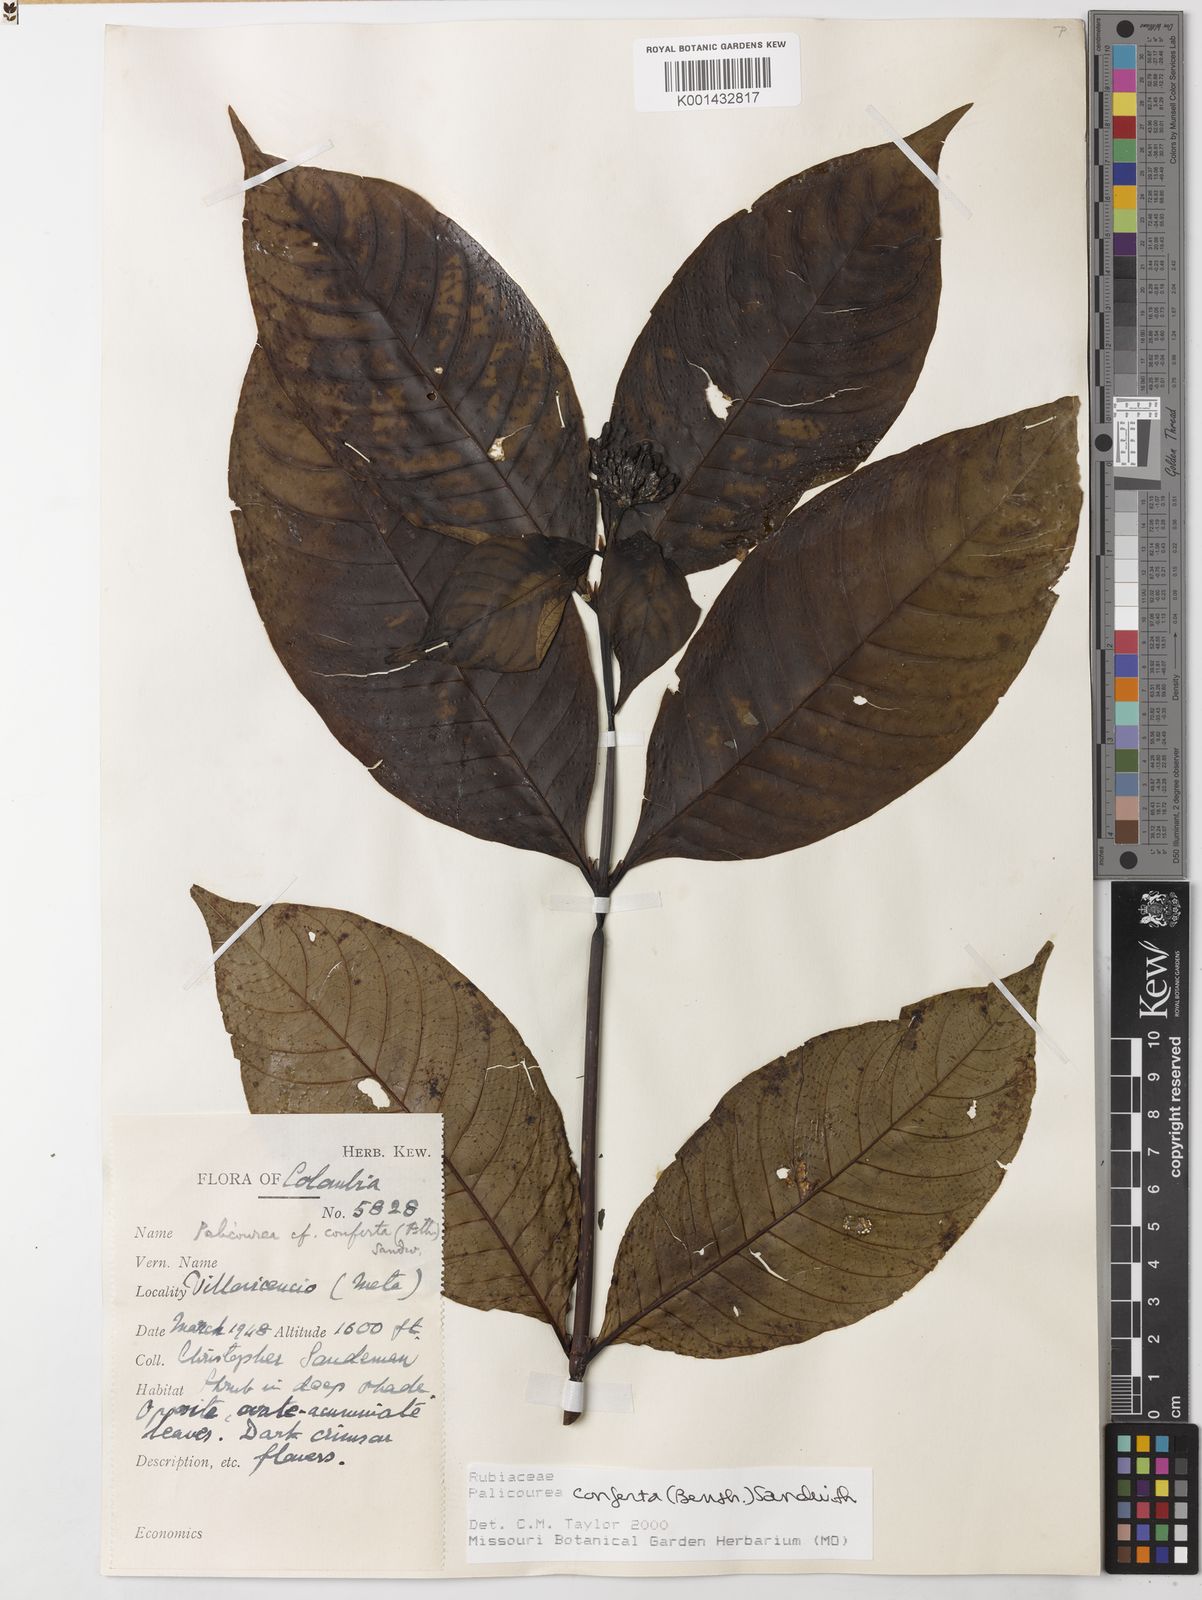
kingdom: Plantae
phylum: Tracheophyta
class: Magnoliopsida
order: Gentianales
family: Rubiaceae
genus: Palicourea
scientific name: Palicourea conferta
